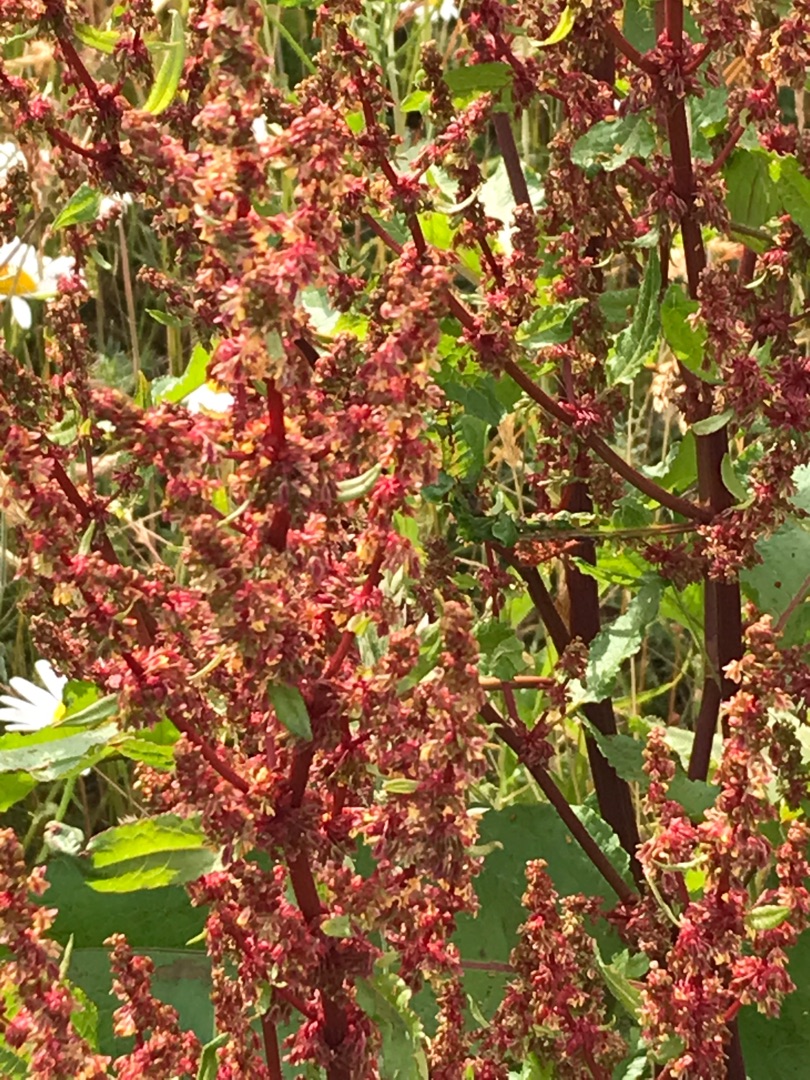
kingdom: Plantae
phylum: Tracheophyta
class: Magnoliopsida
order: Caryophyllales
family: Polygonaceae
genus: Rumex
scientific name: Rumex obtusifolius
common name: Butbladet skræppe
